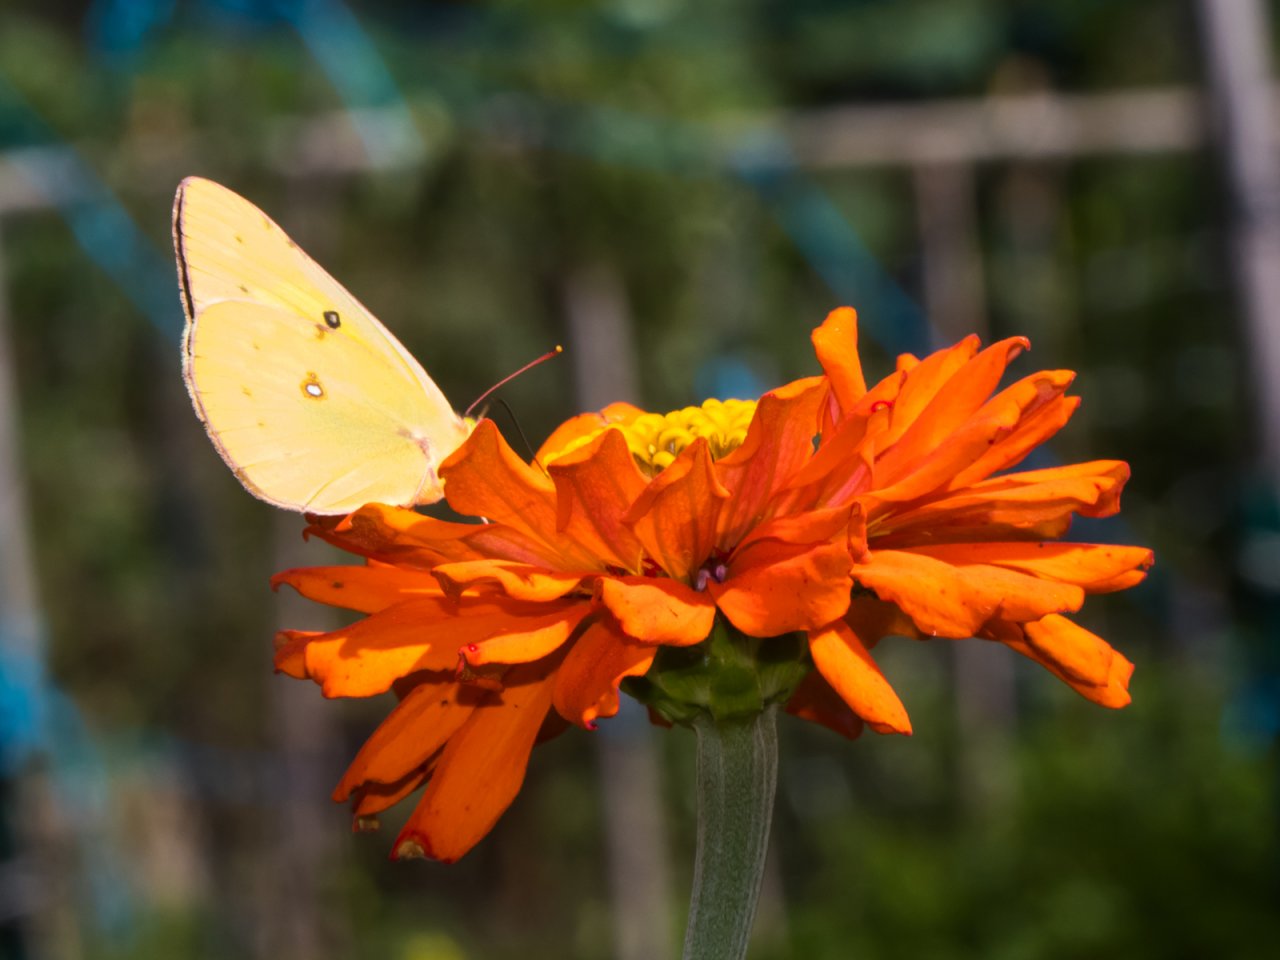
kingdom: Animalia
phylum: Arthropoda
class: Insecta
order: Lepidoptera
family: Pieridae
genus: Colias
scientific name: Colias eurytheme
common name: Orange Sulphur
